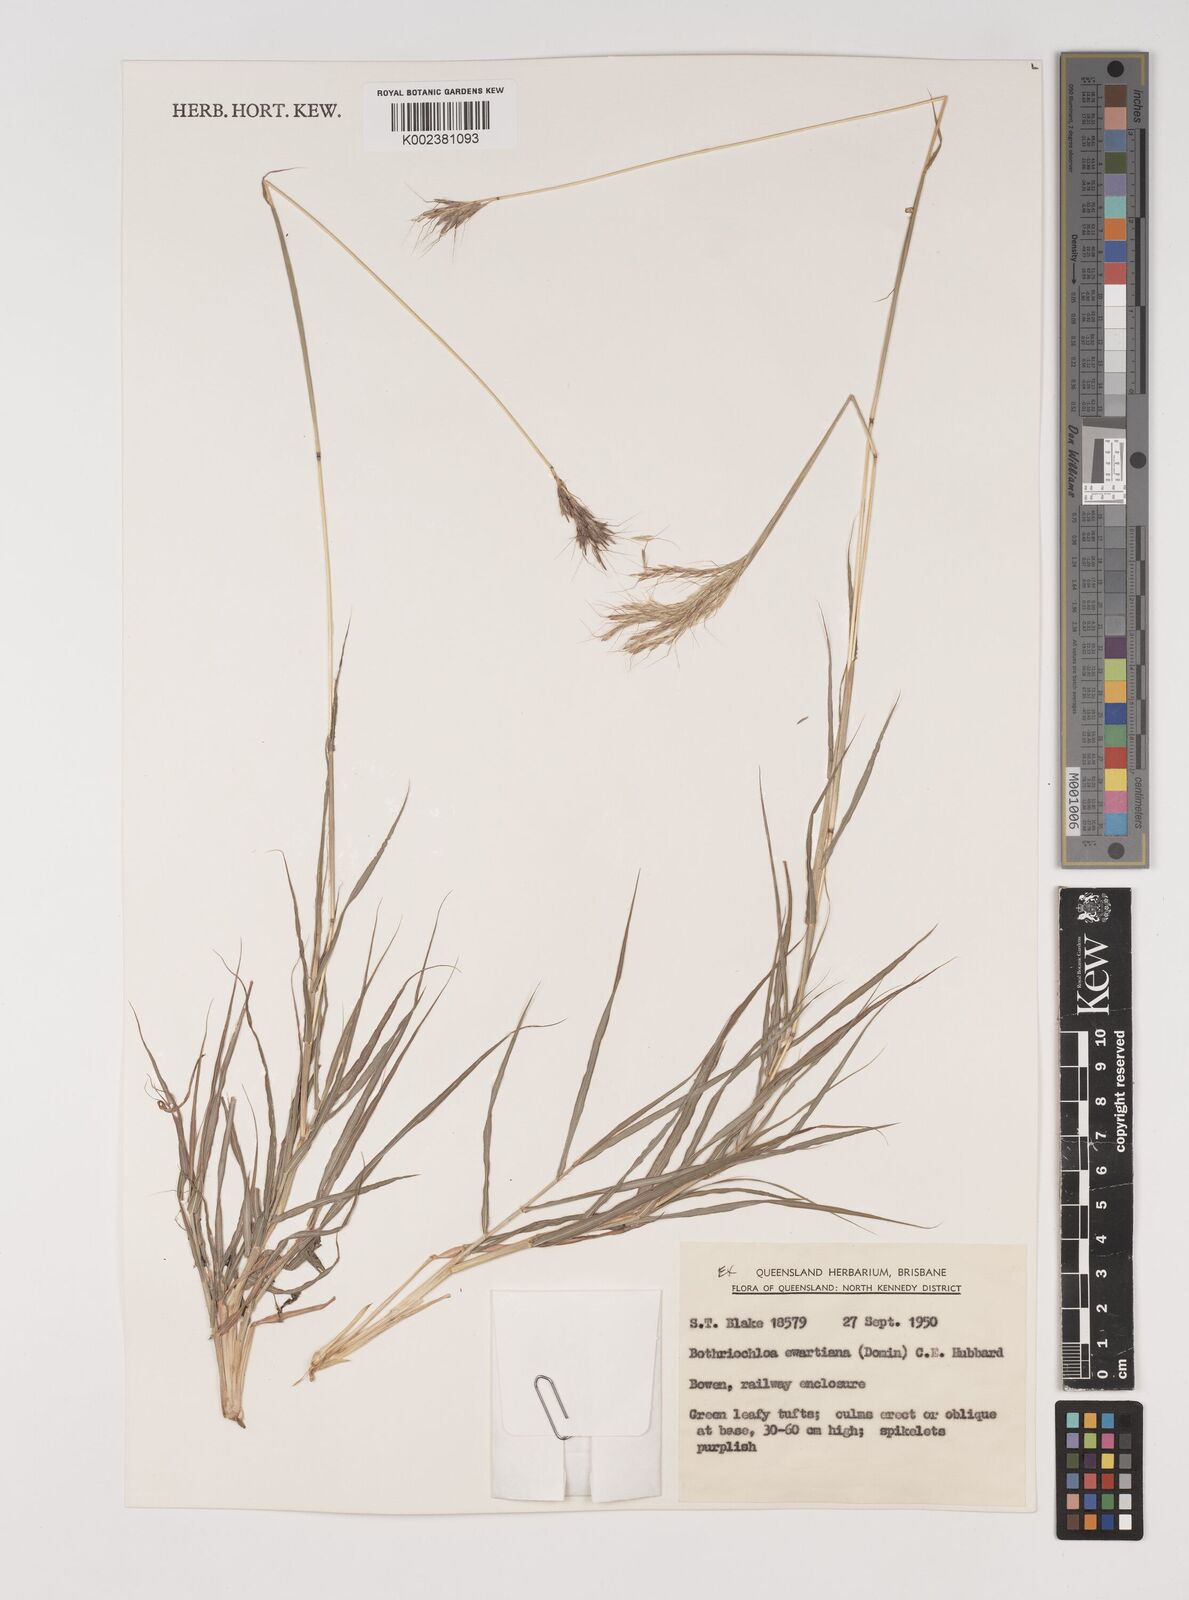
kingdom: Plantae
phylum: Tracheophyta
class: Liliopsida
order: Poales
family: Poaceae
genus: Bothriochloa
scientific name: Bothriochloa ewartiana
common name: Desert-bluegrass
